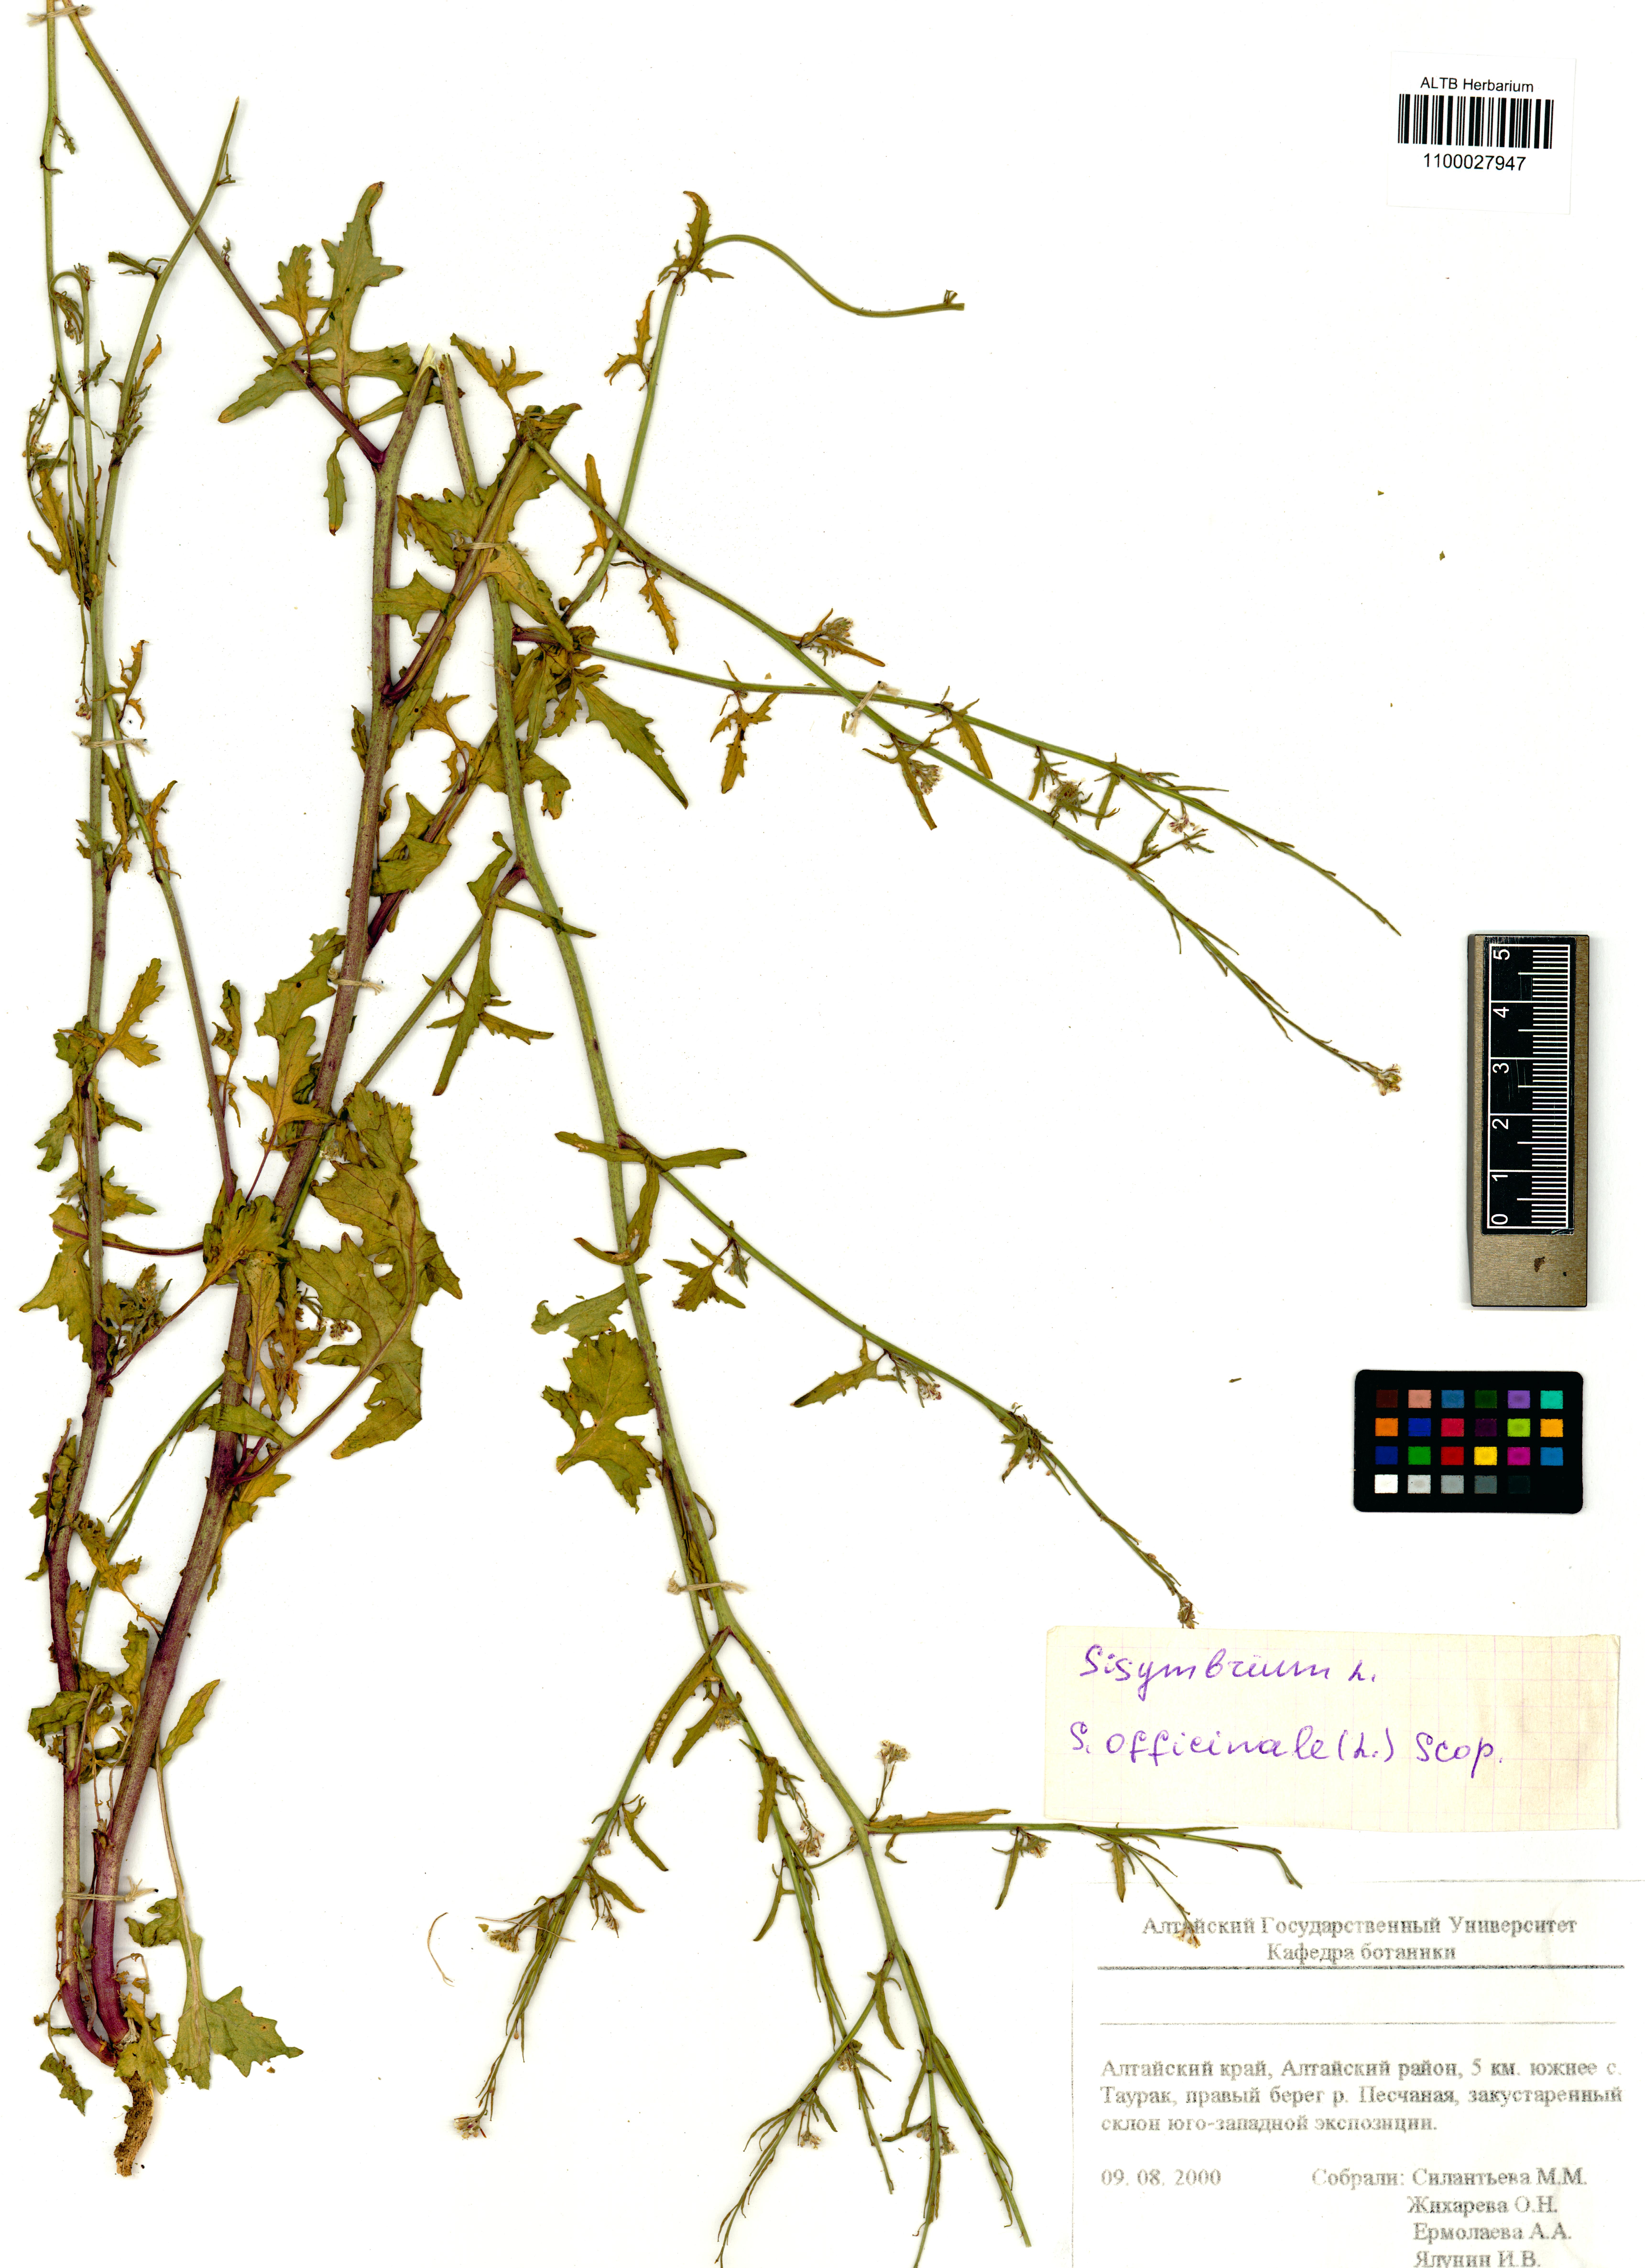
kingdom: Plantae
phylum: Tracheophyta
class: Magnoliopsida
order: Brassicales
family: Brassicaceae
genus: Sisymbrium
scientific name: Sisymbrium officinale
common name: Hedge mustard
